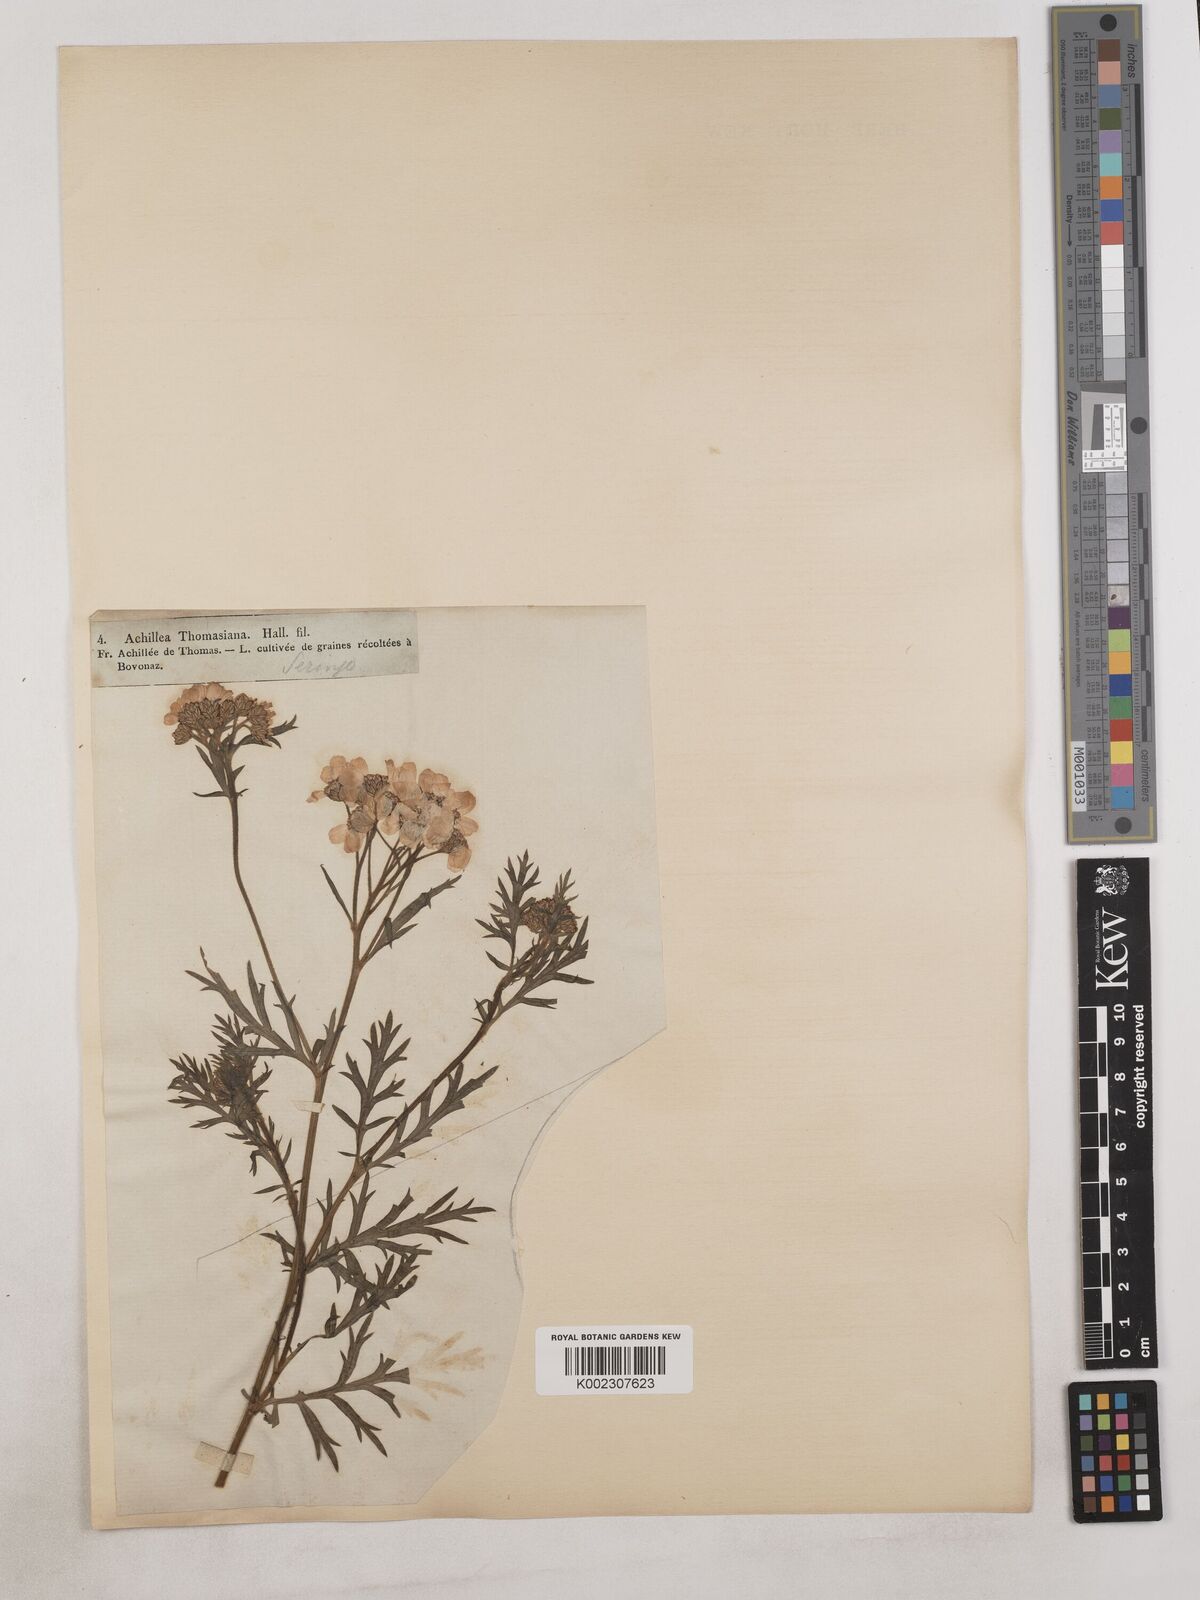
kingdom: Plantae
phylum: Tracheophyta
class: Magnoliopsida
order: Asterales
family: Asteraceae
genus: Achillea
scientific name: Achillea thomasiana ex
